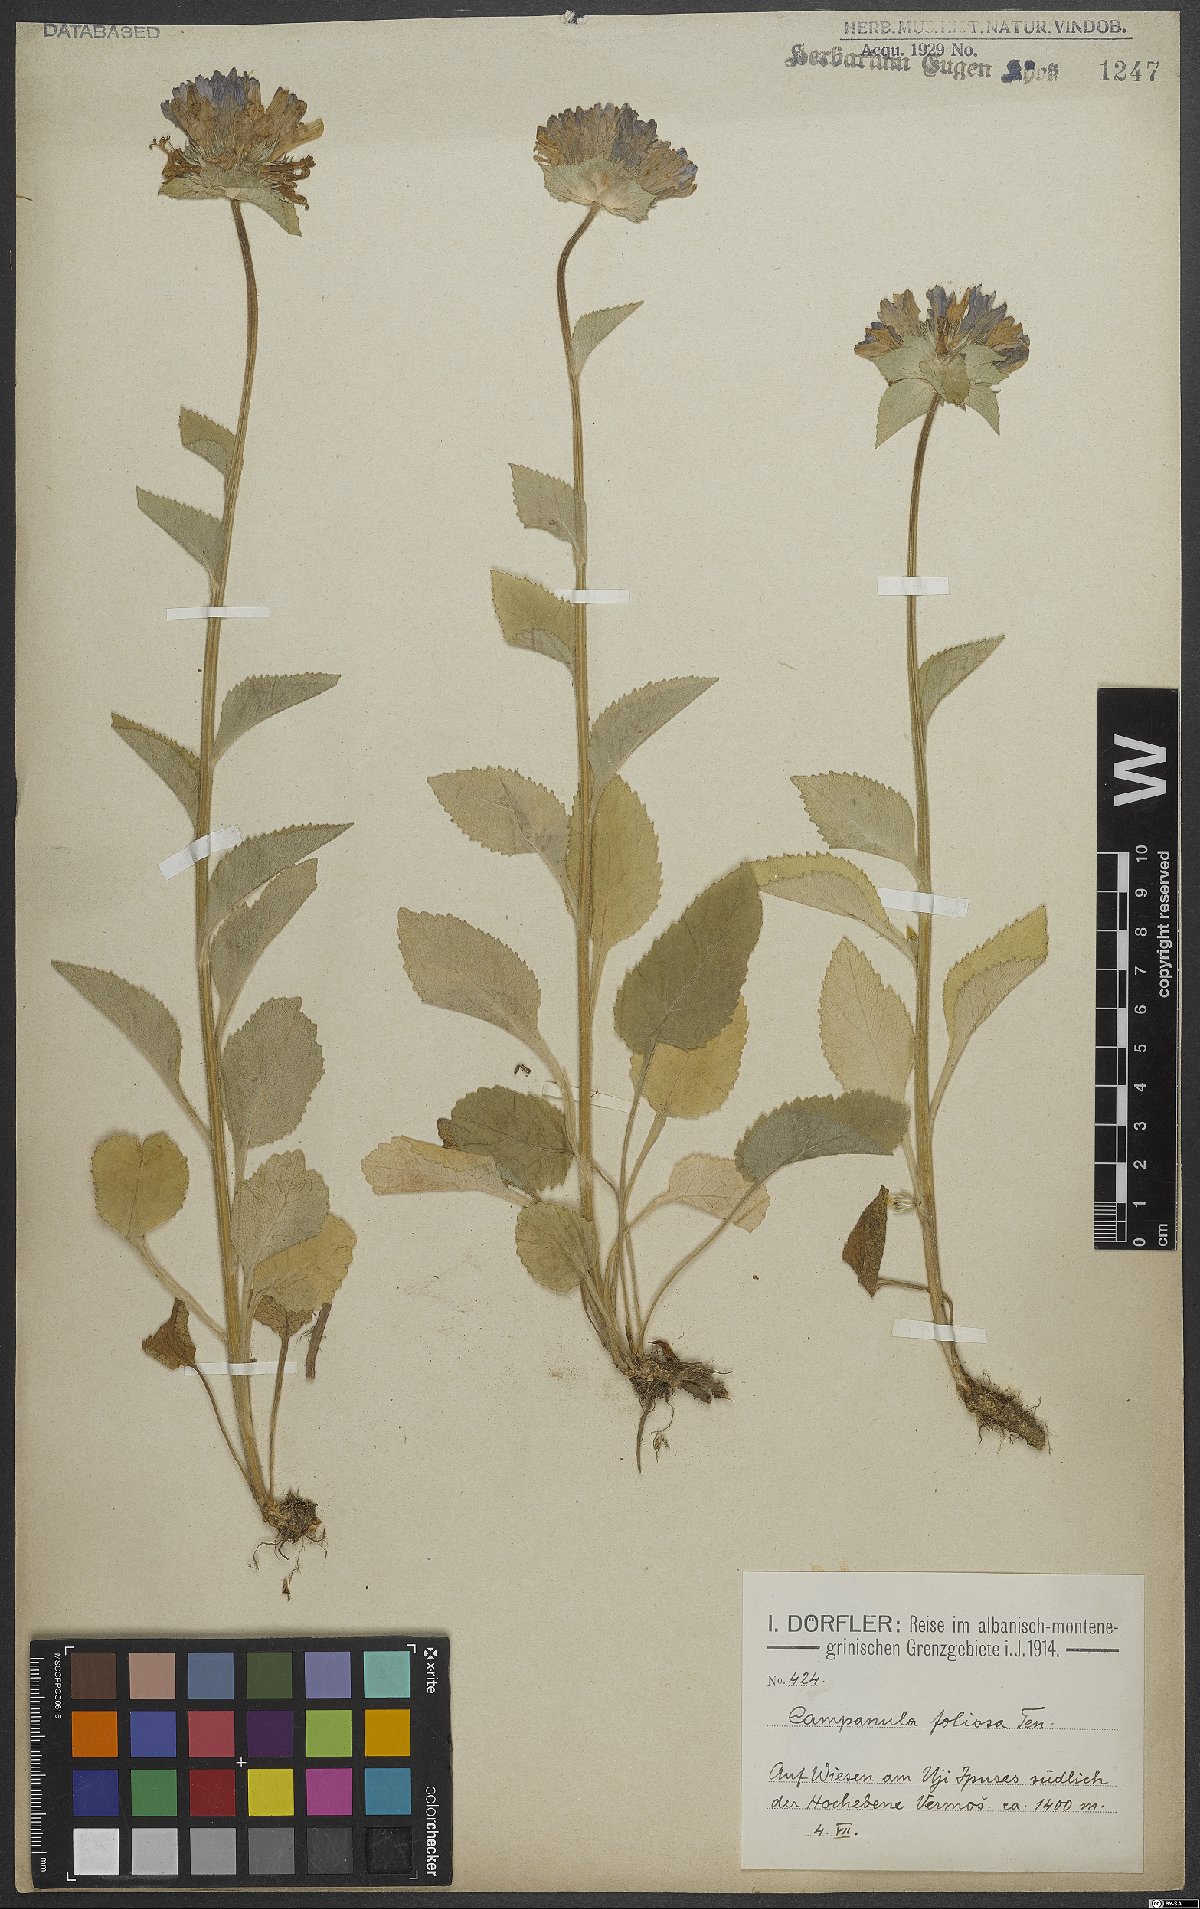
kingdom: Plantae
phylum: Tracheophyta
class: Magnoliopsida
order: Asterales
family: Campanulaceae
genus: Campanula
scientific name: Campanula foliosa
